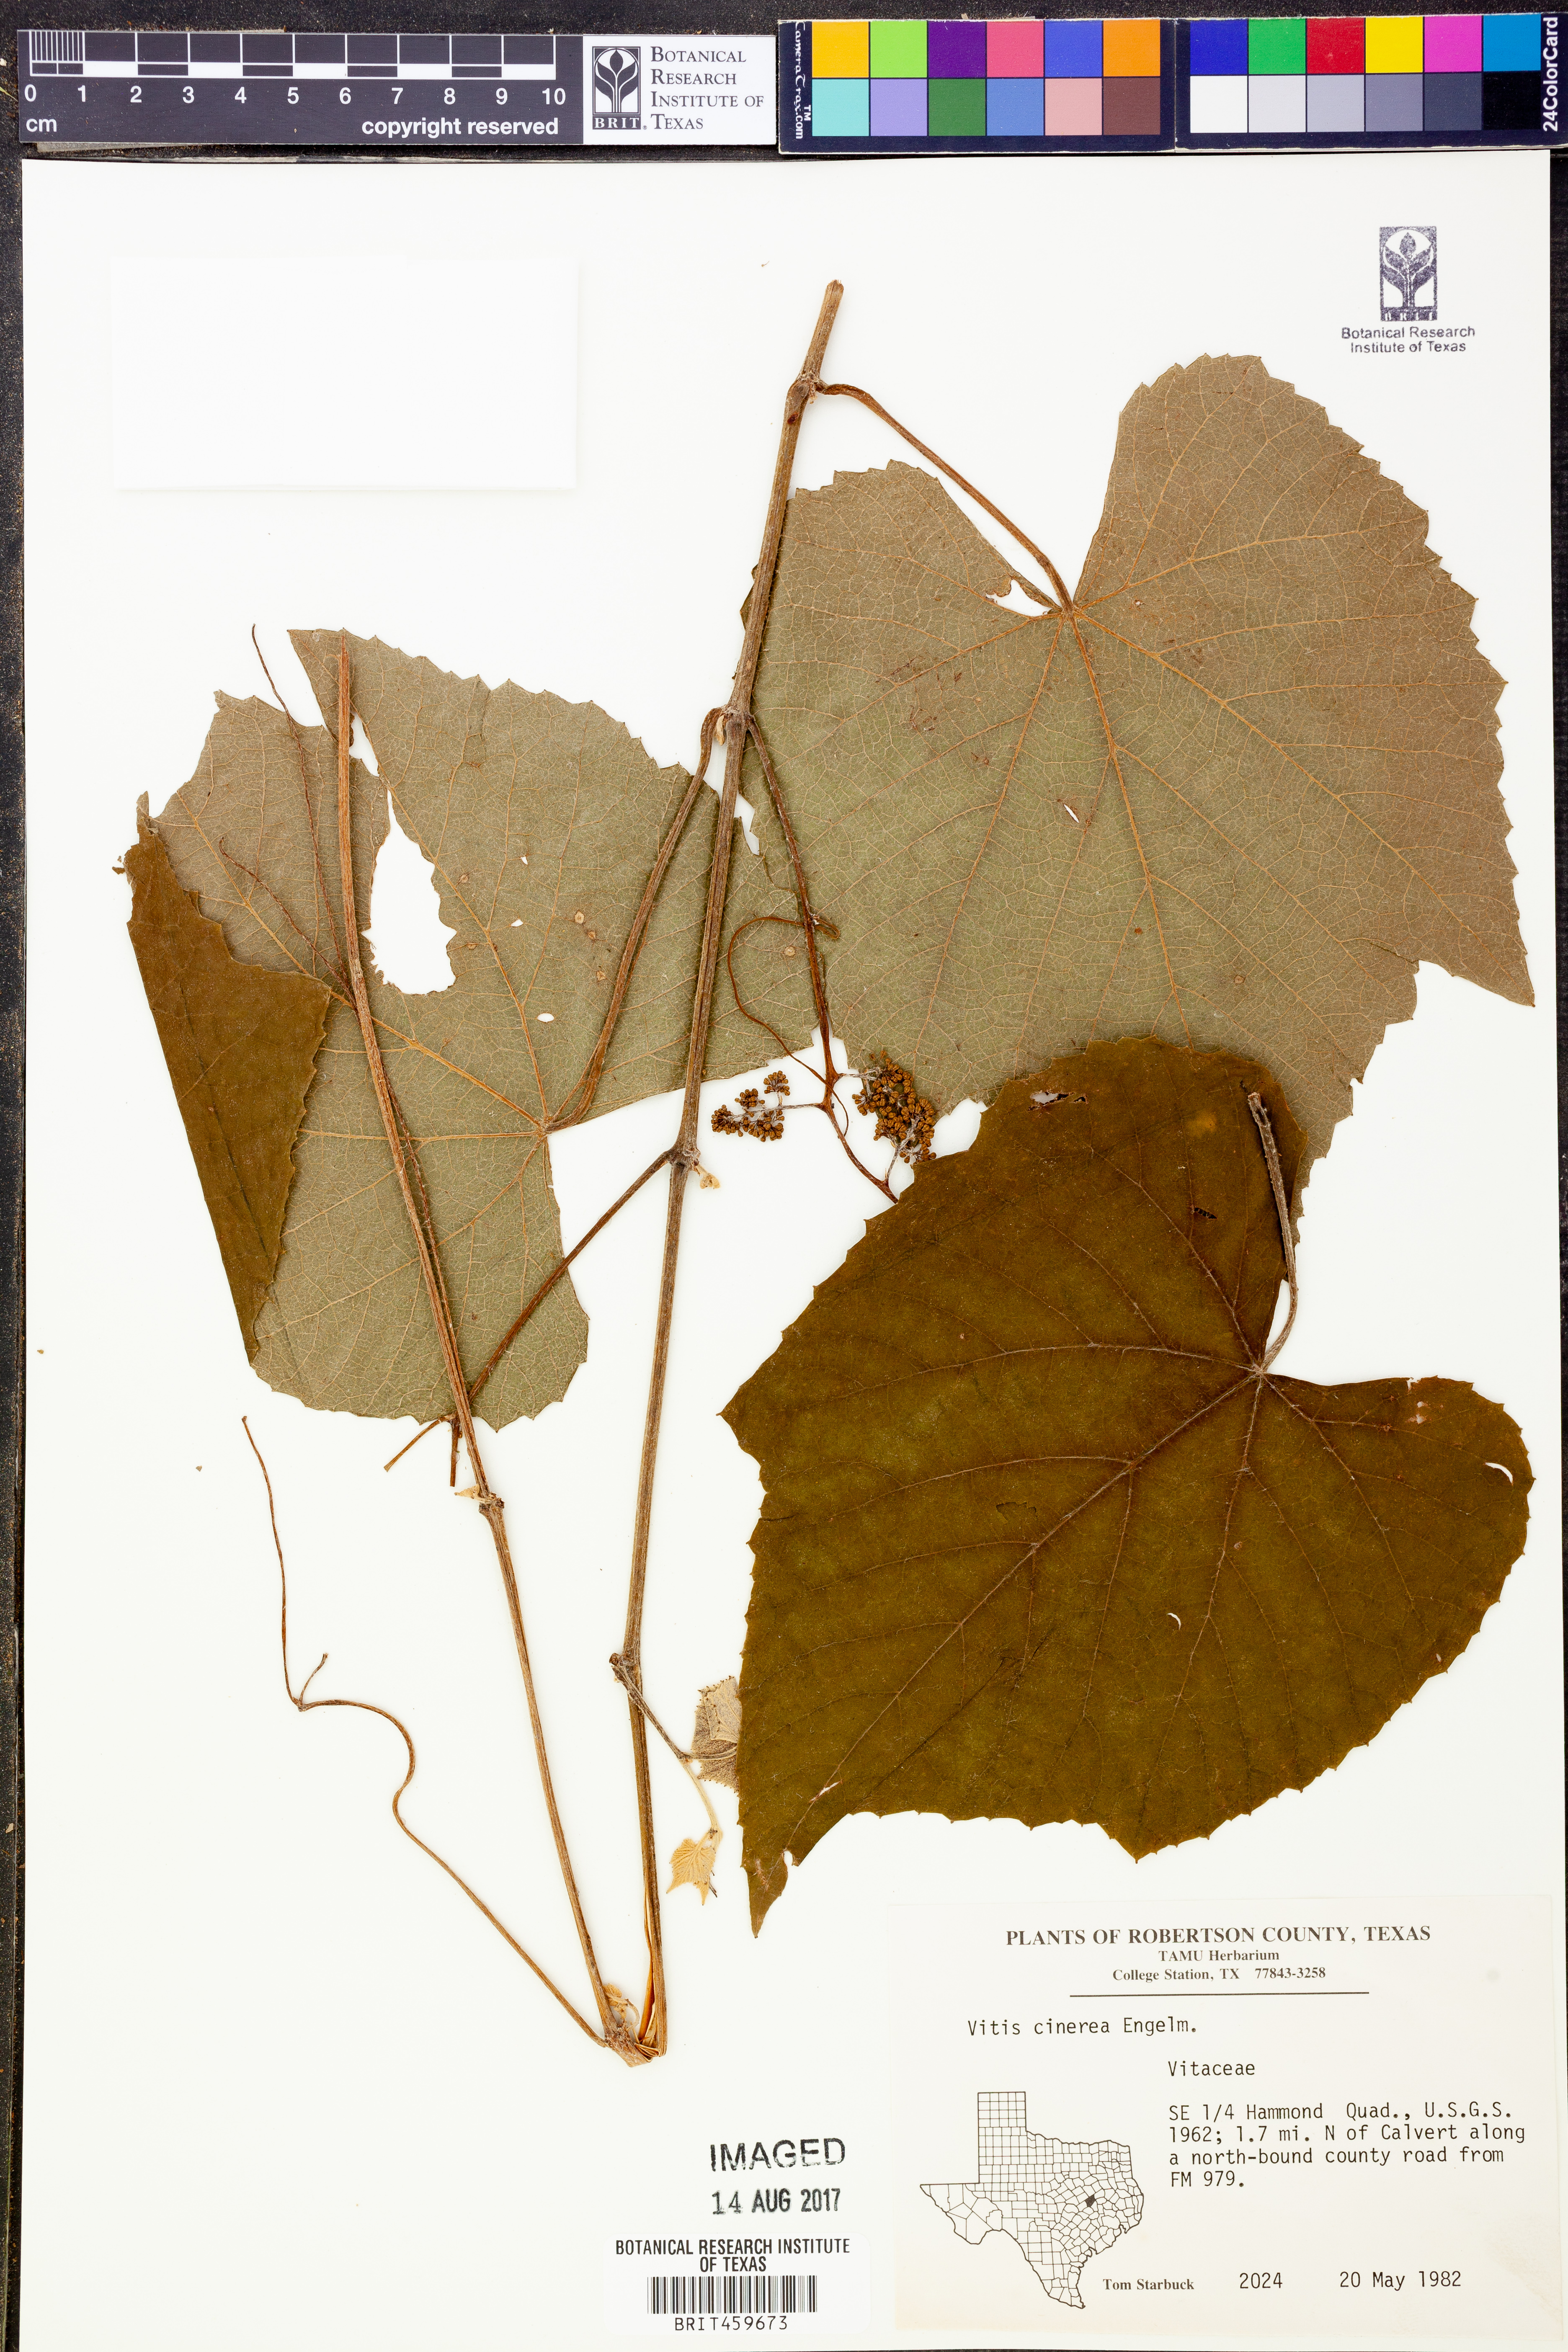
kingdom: Plantae
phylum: Tracheophyta
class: Magnoliopsida
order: Vitales
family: Vitaceae
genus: Vitis
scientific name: Vitis cinerea
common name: Ashy grape
